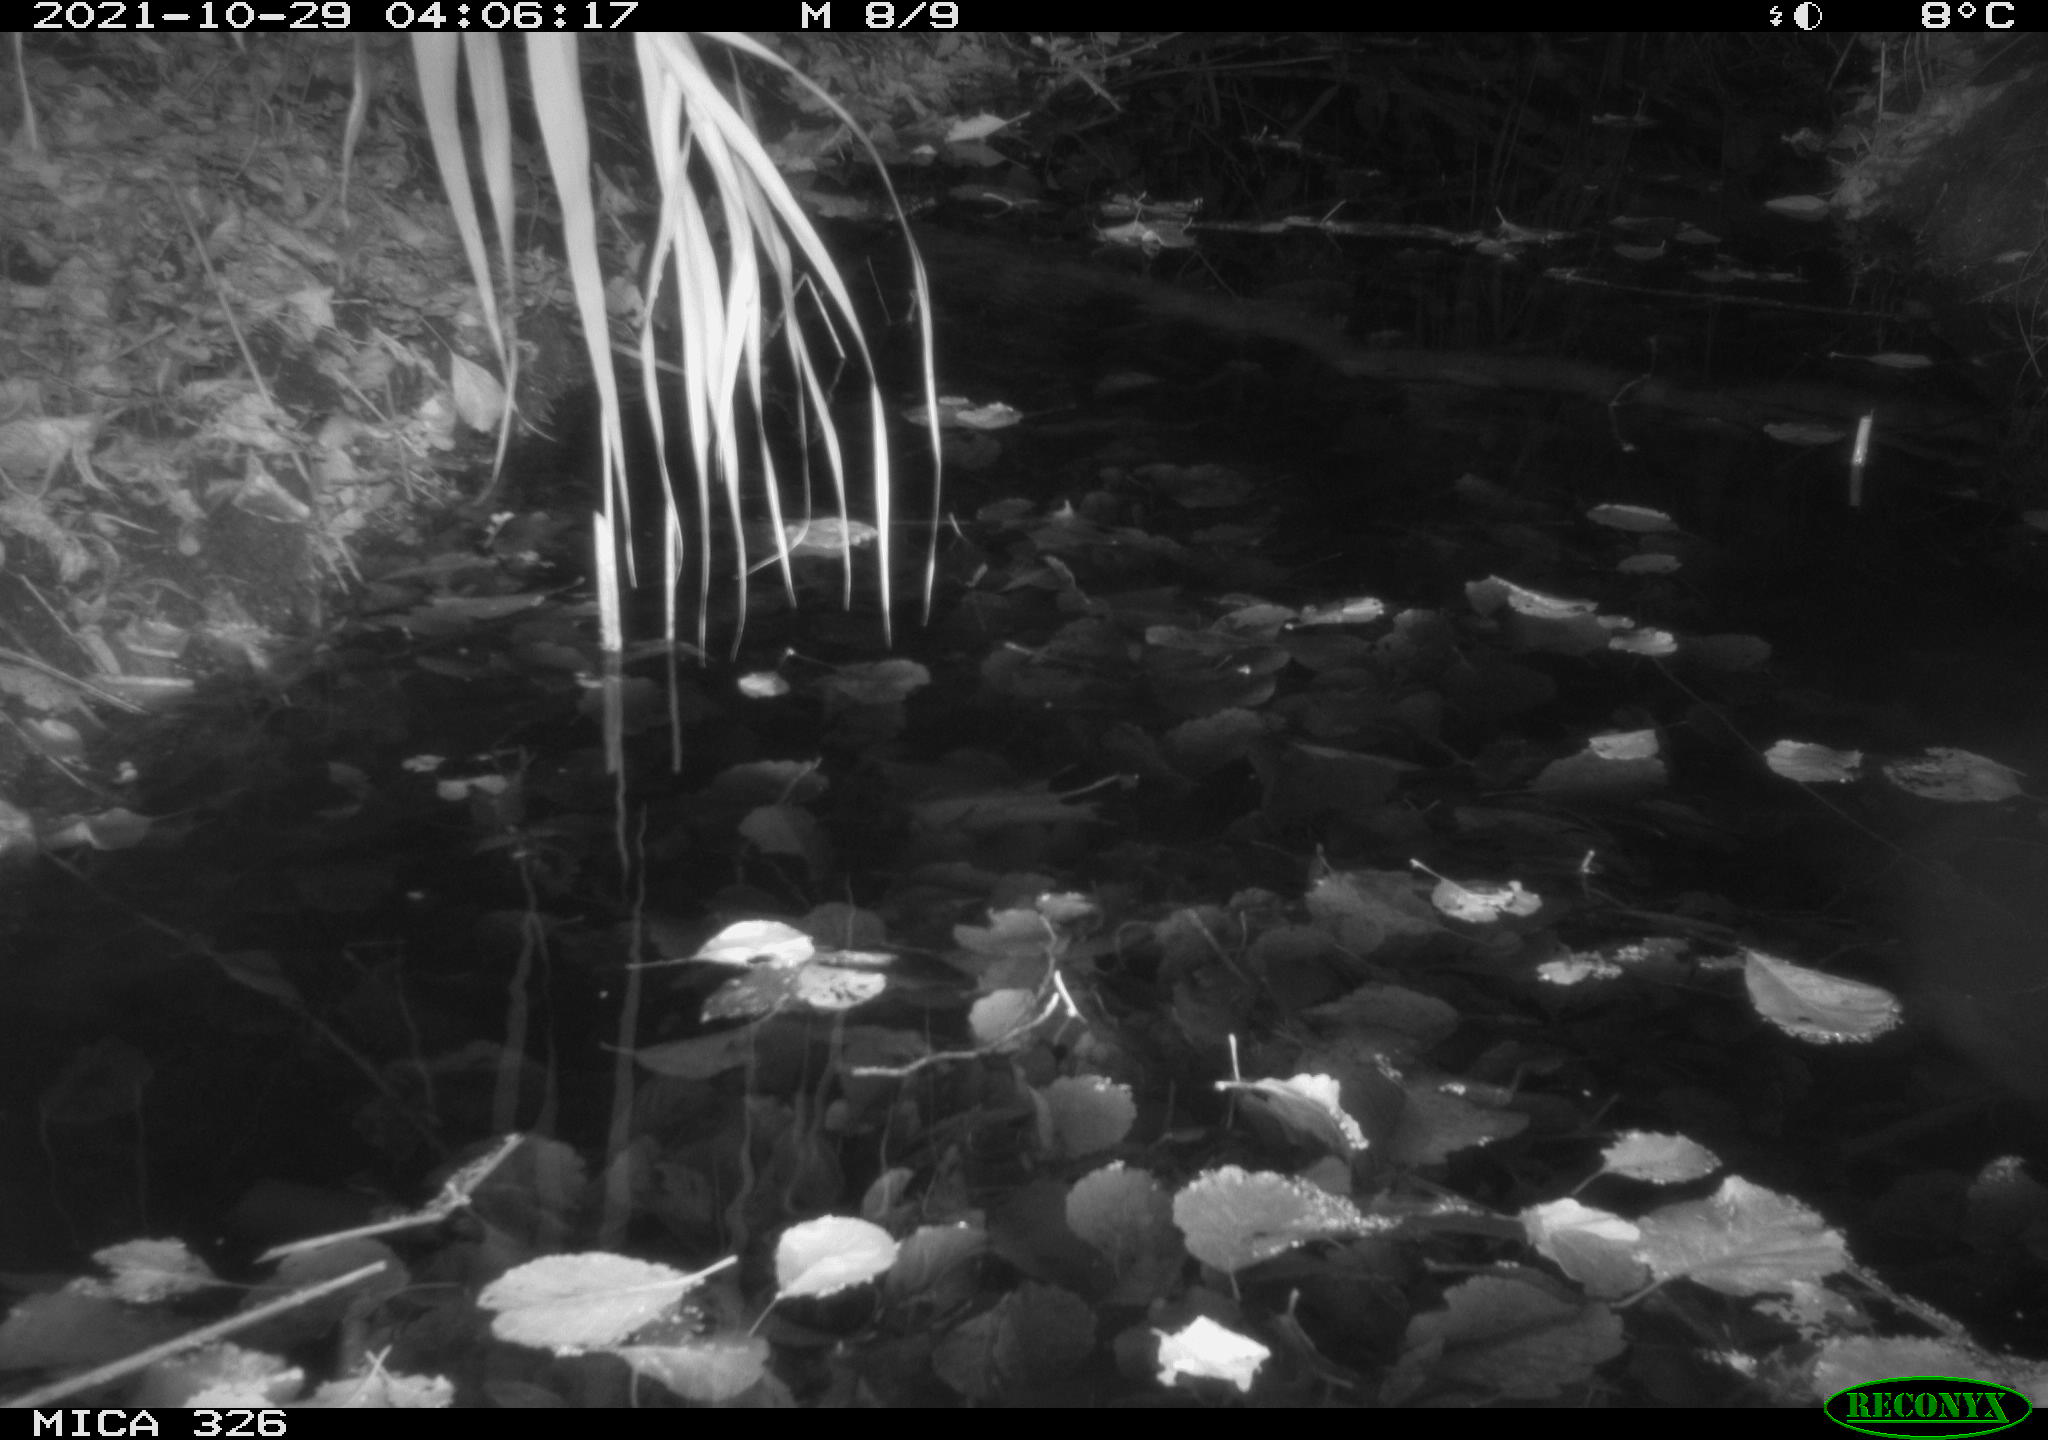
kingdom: Animalia
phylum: Chordata
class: Mammalia
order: Rodentia
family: Muridae
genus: Rattus
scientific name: Rattus norvegicus
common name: Brown rat
